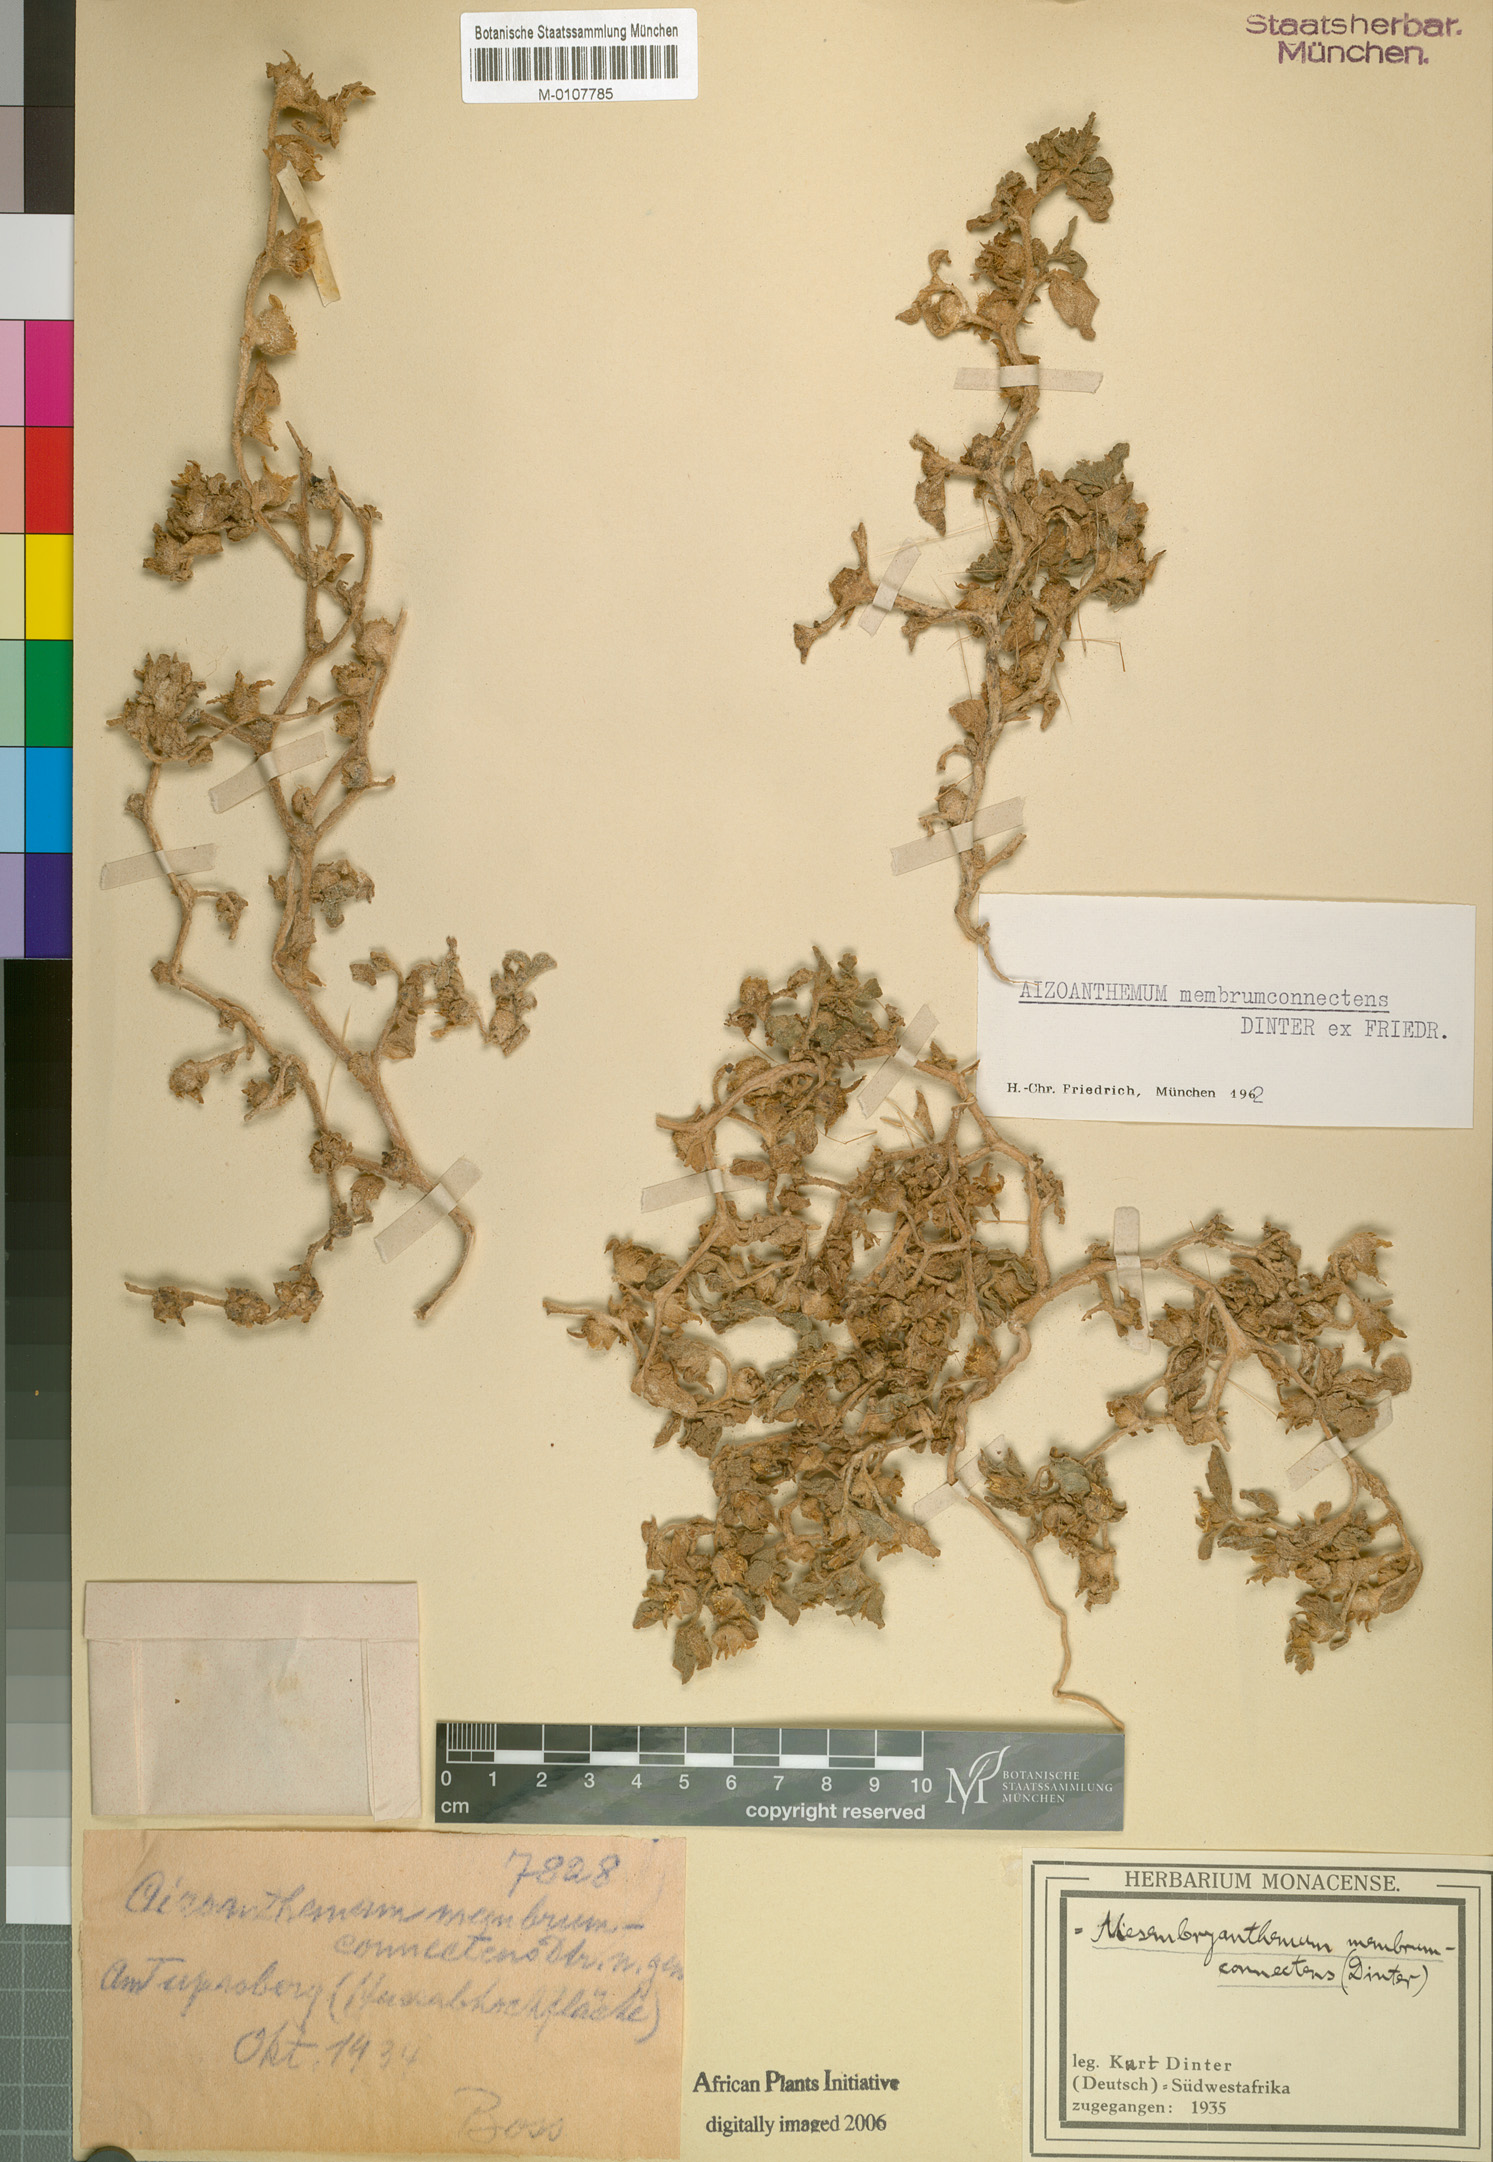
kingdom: Plantae
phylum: Tracheophyta
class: Magnoliopsida
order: Caryophyllales
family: Aizoaceae
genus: Aizoanthemum
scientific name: Aizoanthemum rehmannii
